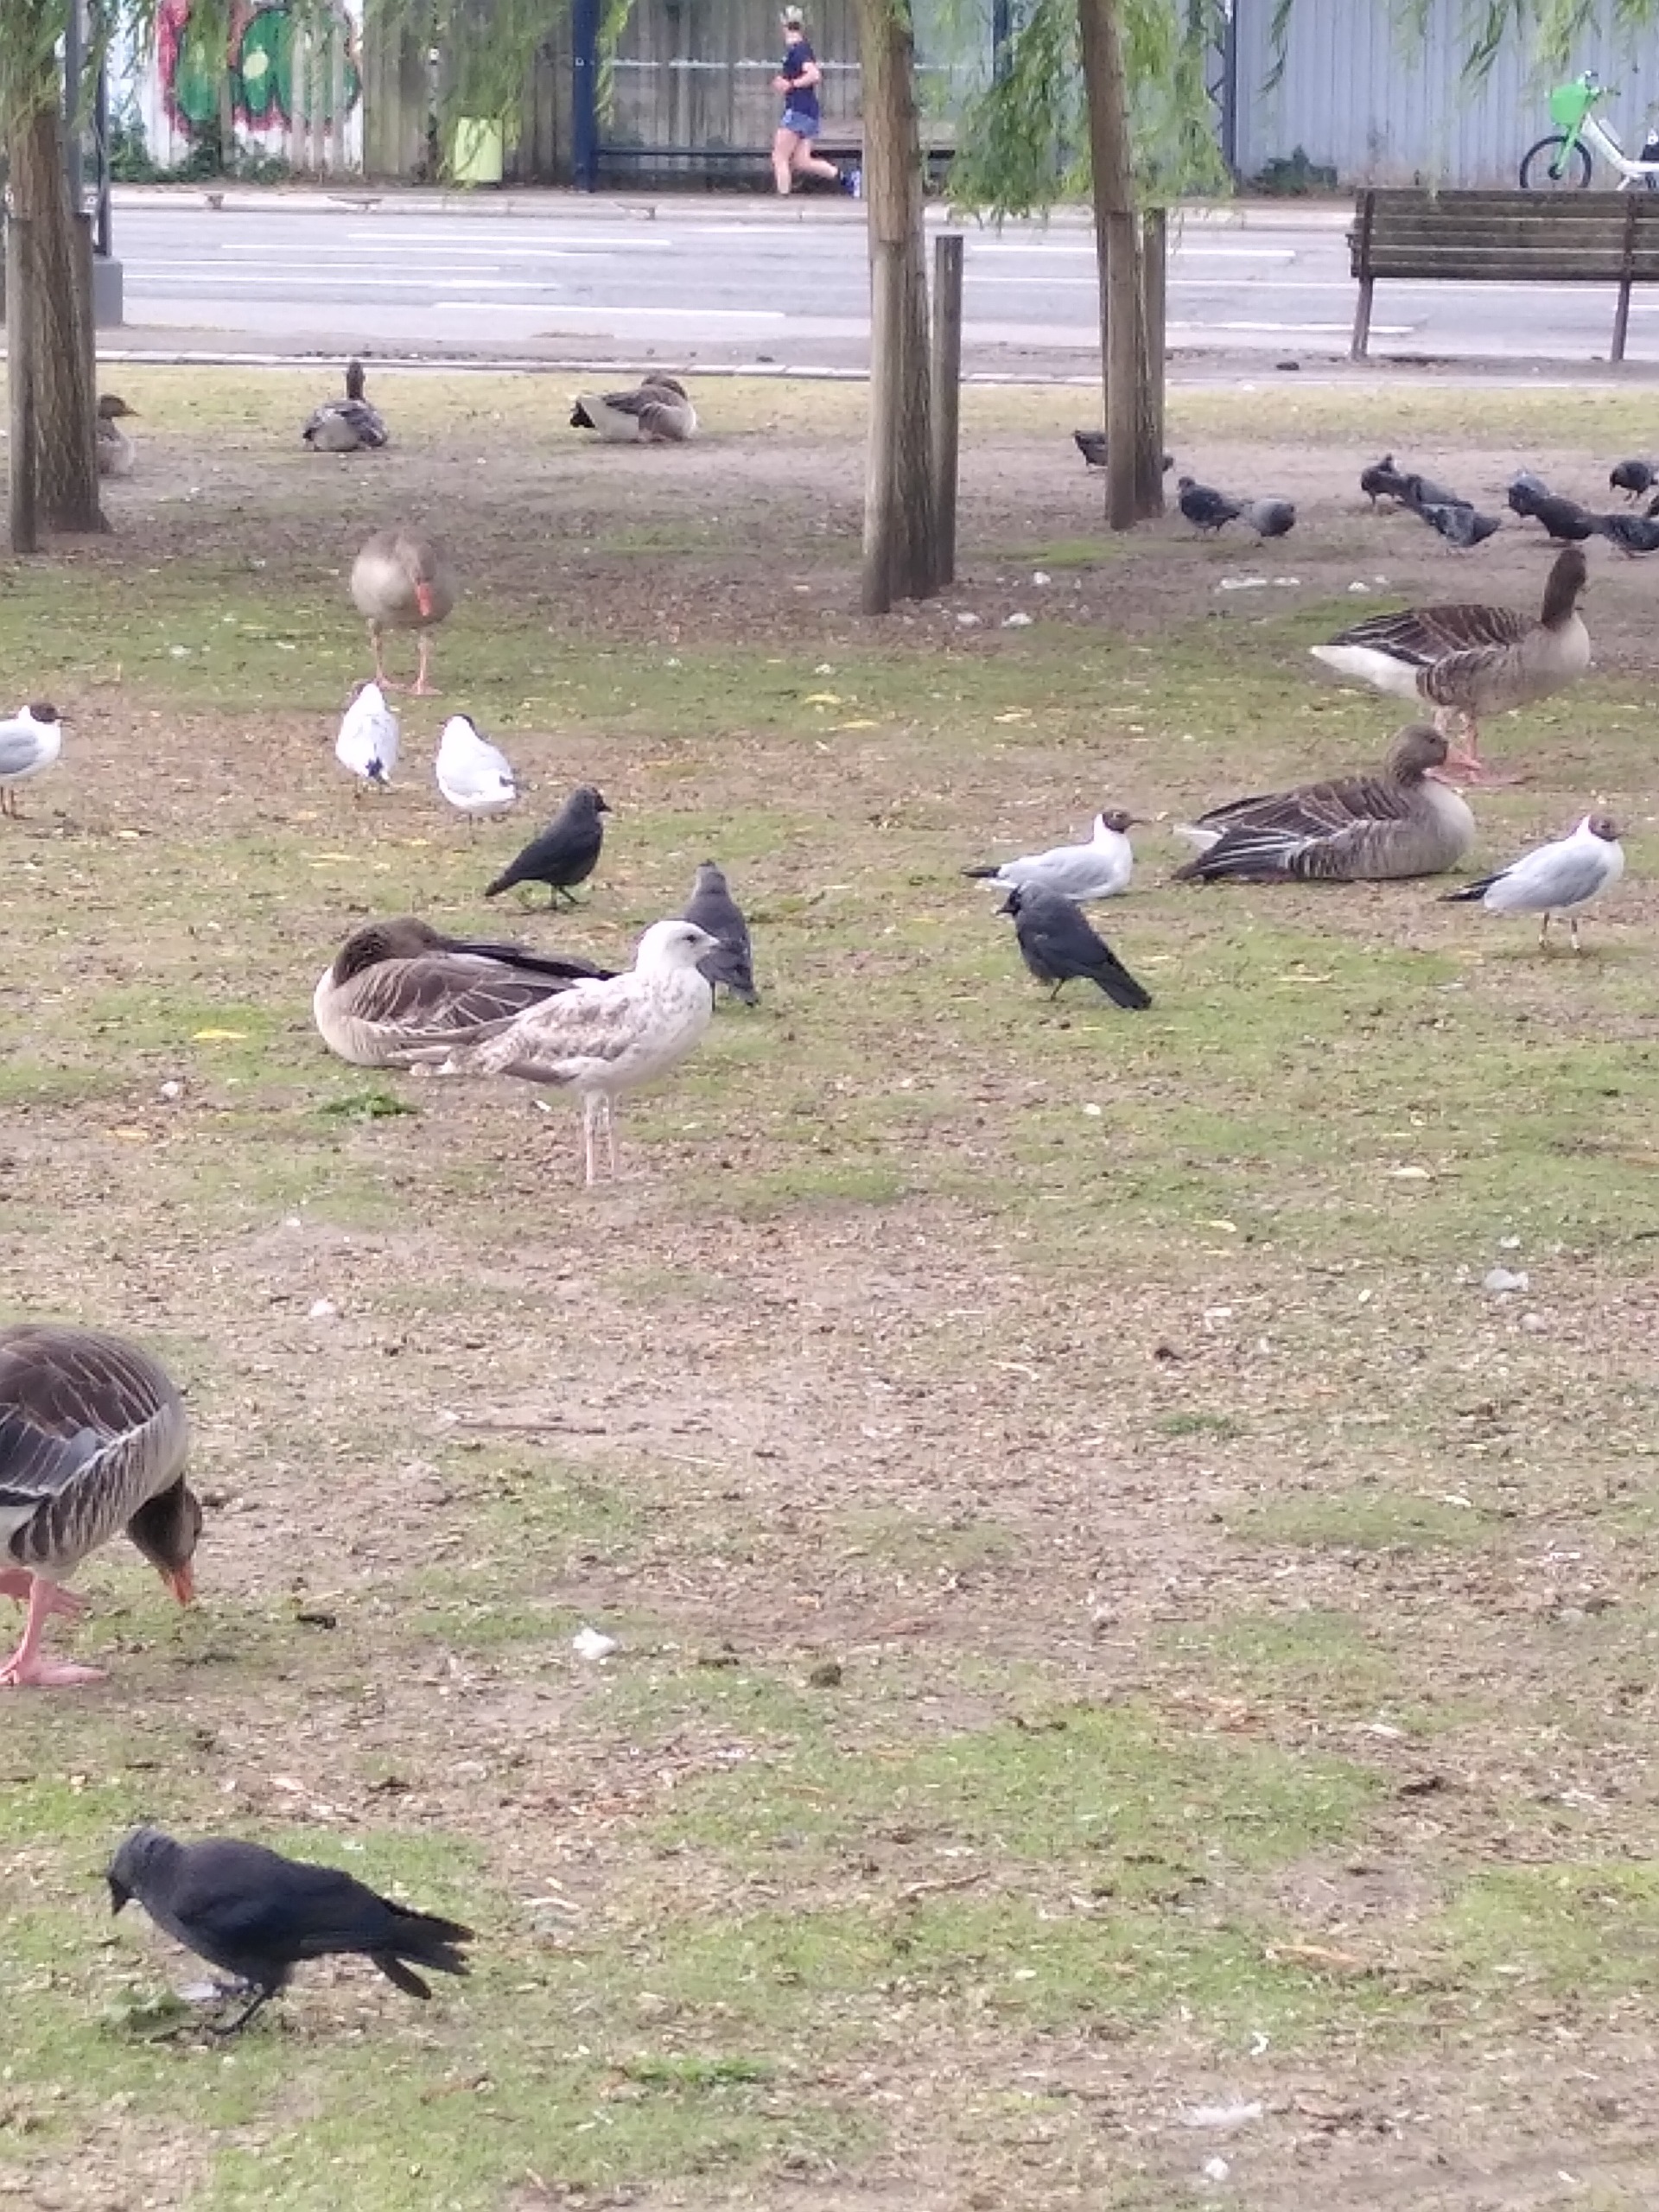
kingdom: Animalia
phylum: Chordata
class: Aves
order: Charadriiformes
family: Laridae
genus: Larus
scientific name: Larus cachinnans
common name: Kaspisk måge
